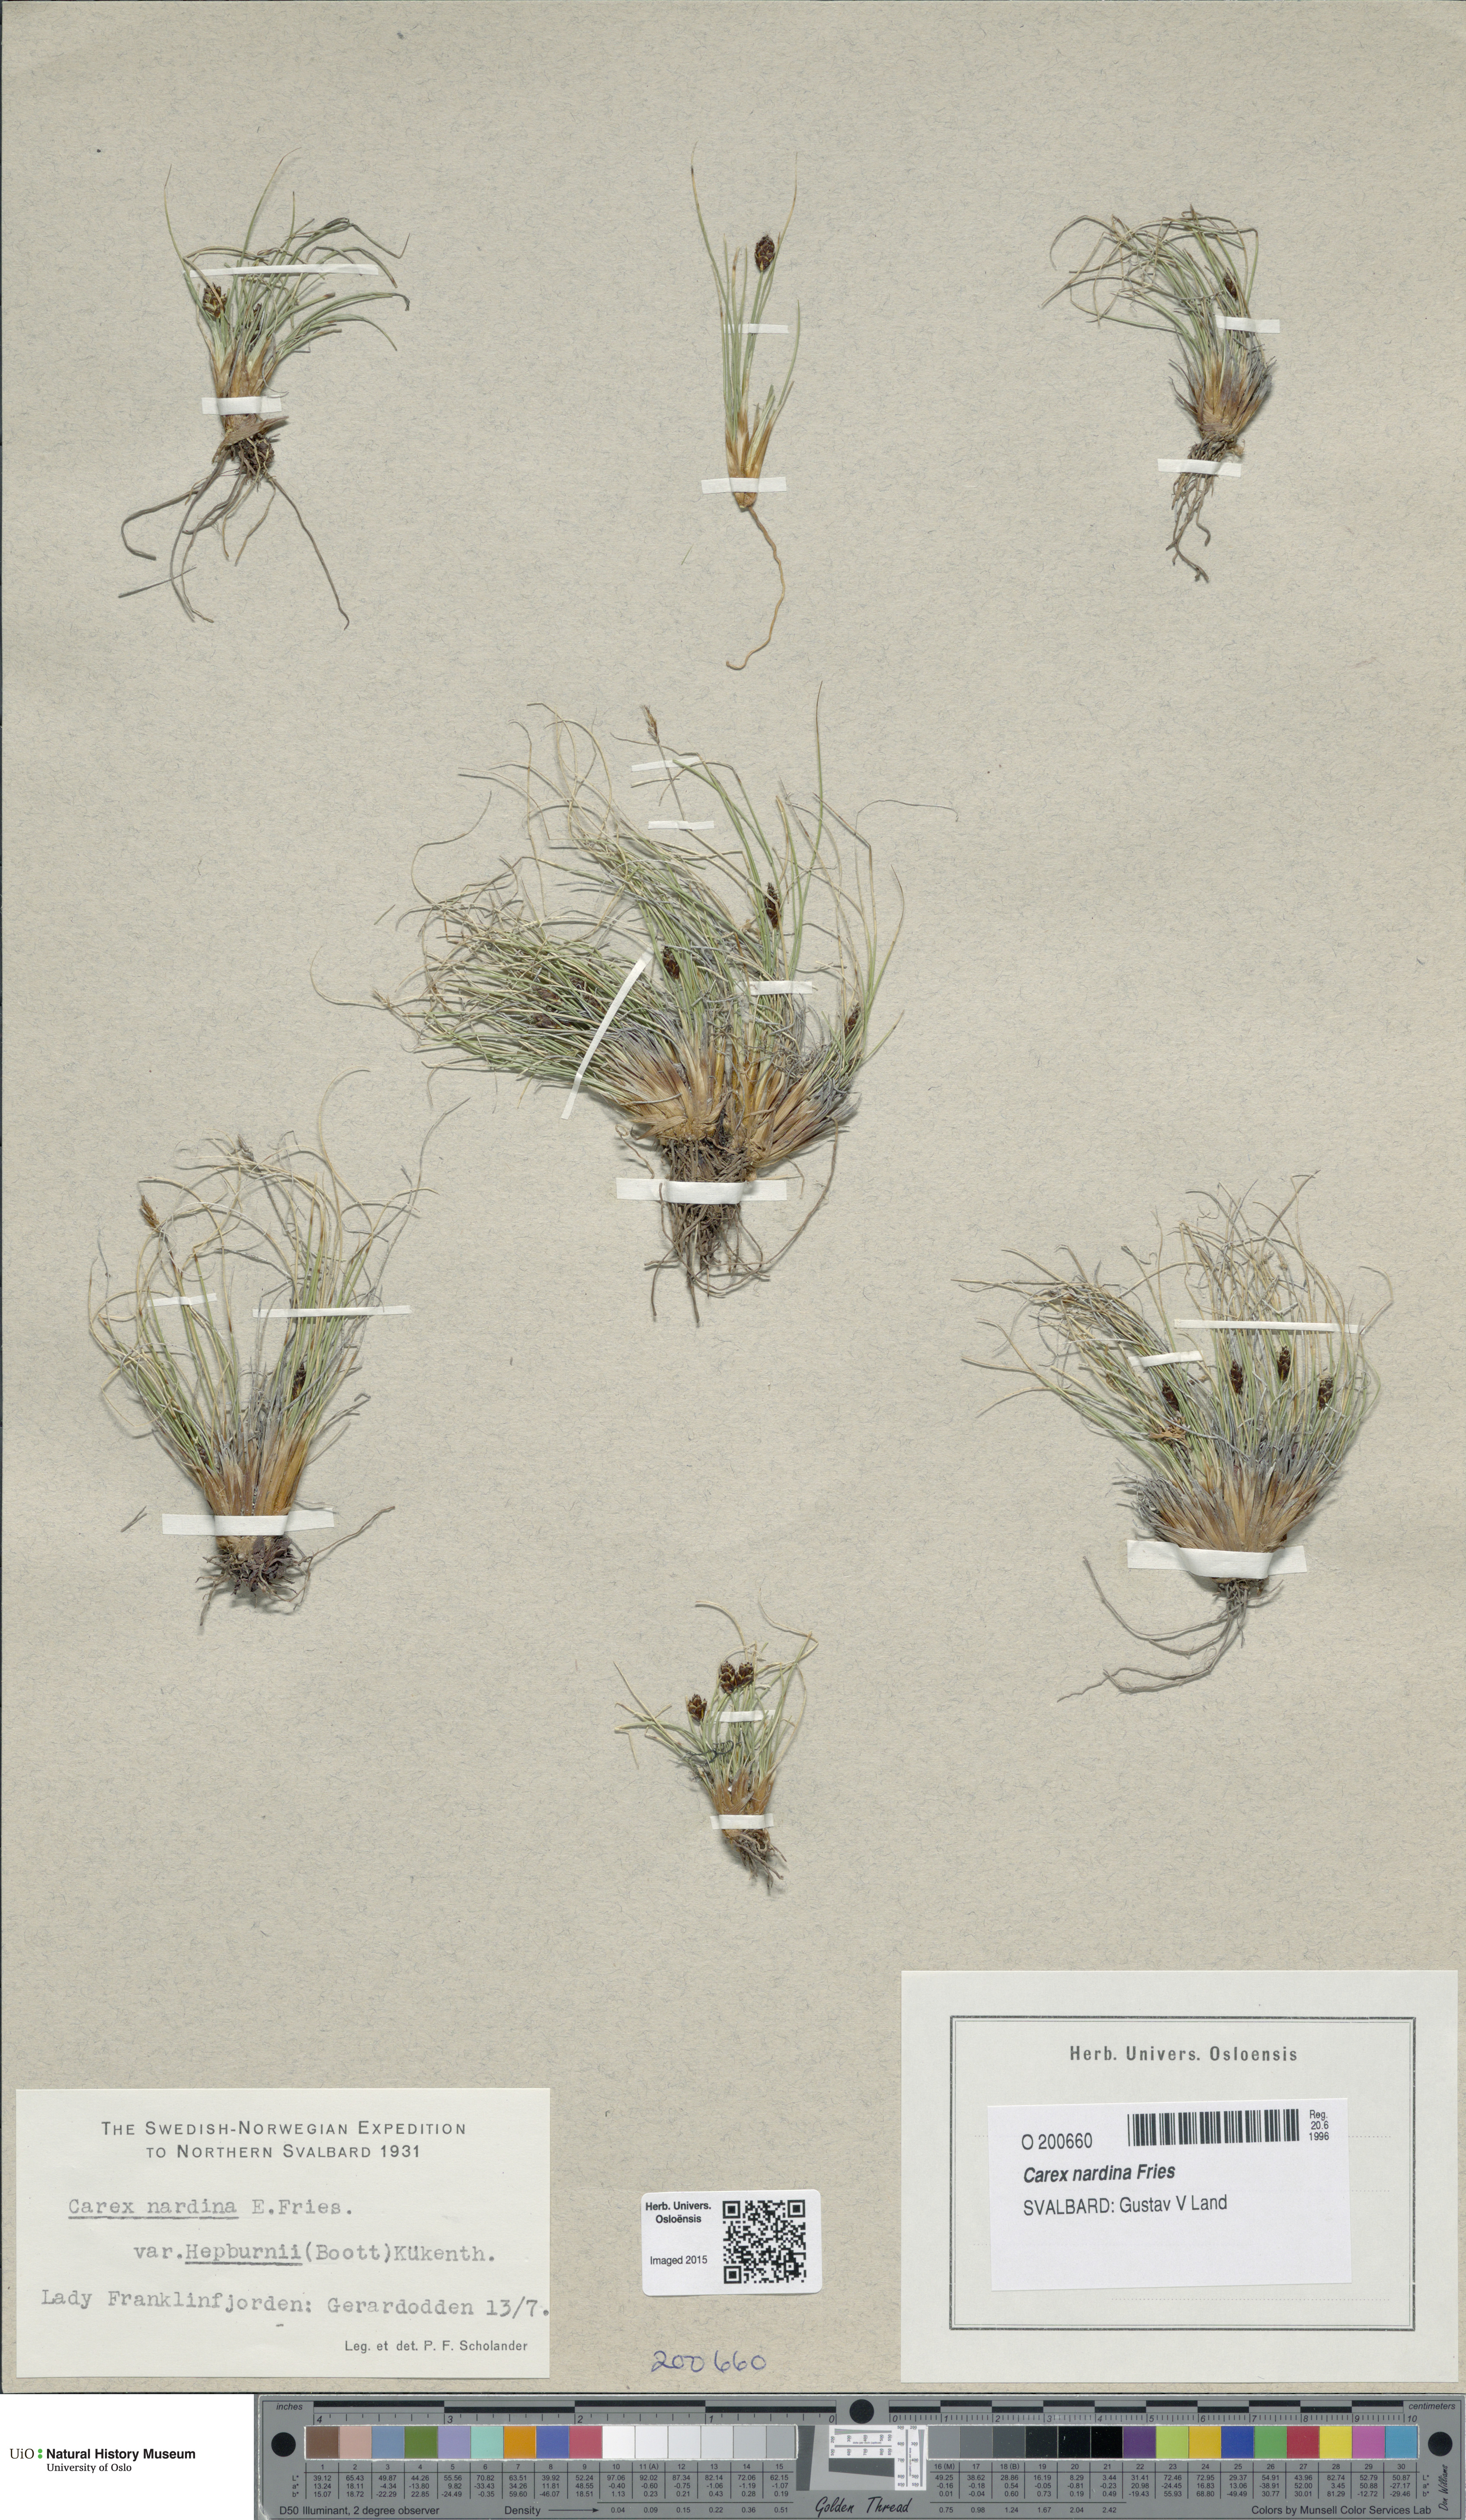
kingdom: Plantae
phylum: Tracheophyta
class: Liliopsida
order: Poales
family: Cyperaceae
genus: Carex
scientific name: Carex nardina
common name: Nard sedge
